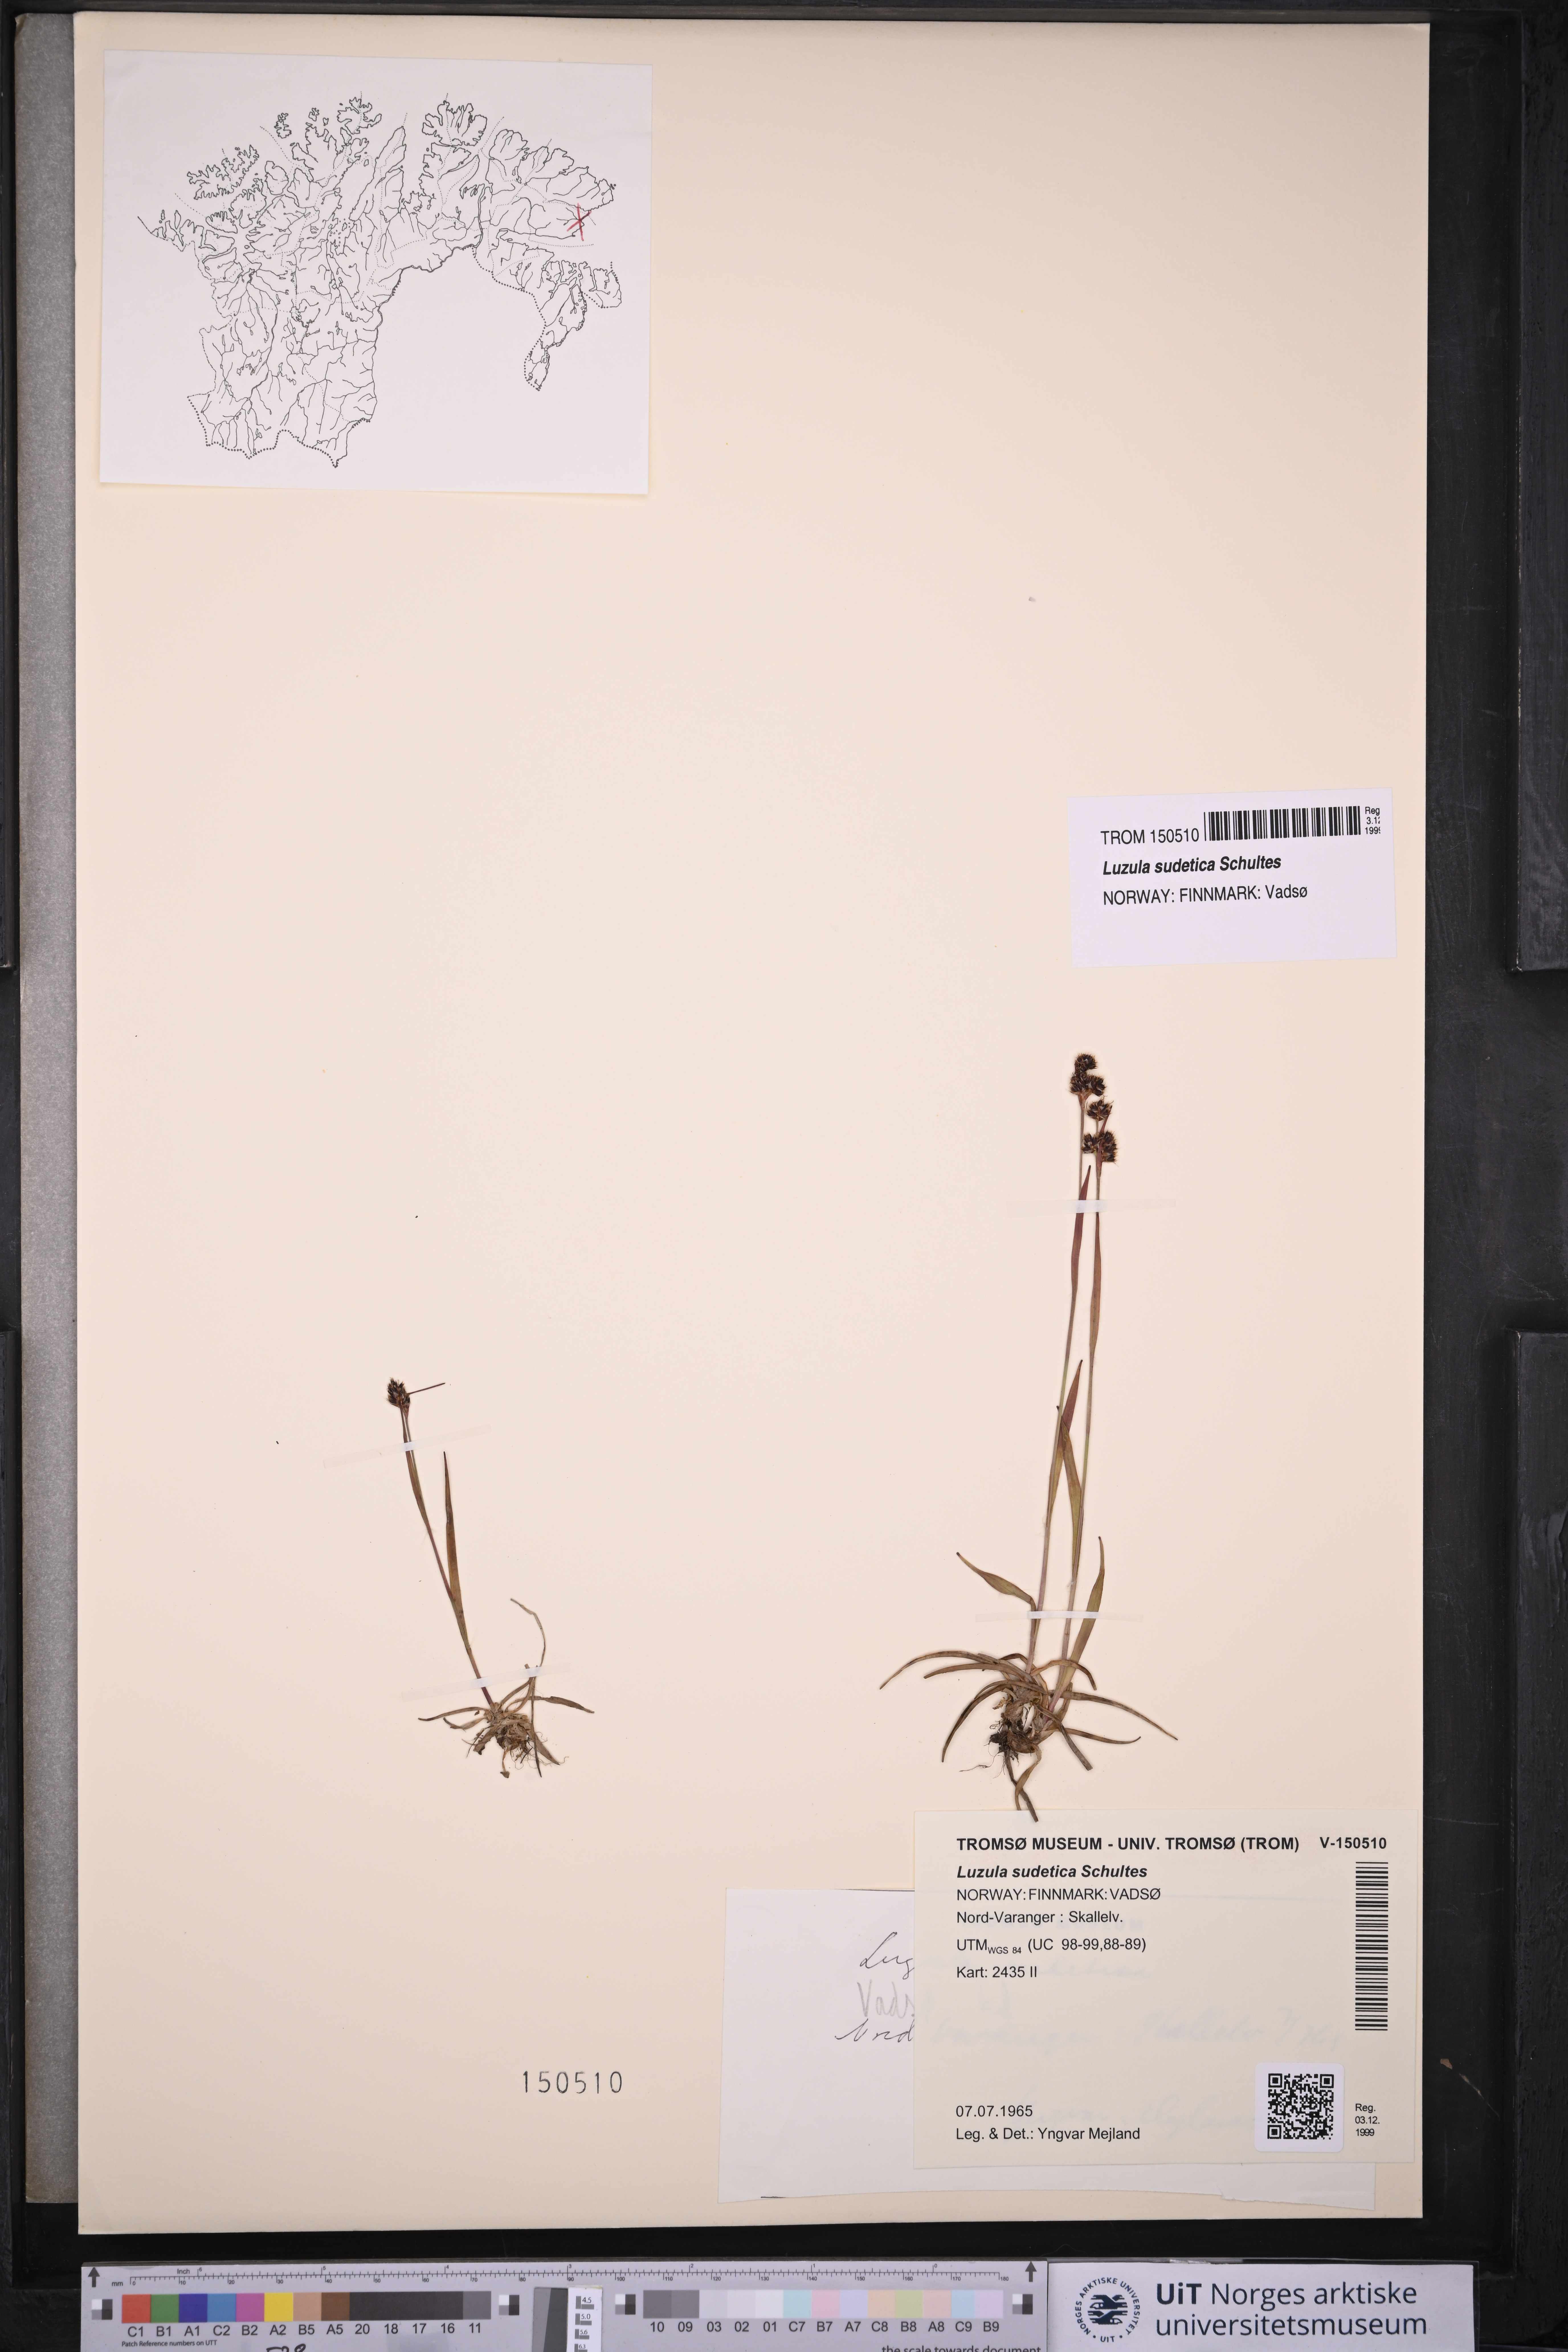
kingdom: Plantae
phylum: Tracheophyta
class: Liliopsida
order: Poales
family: Juncaceae
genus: Luzula
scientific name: Luzula sudetica
